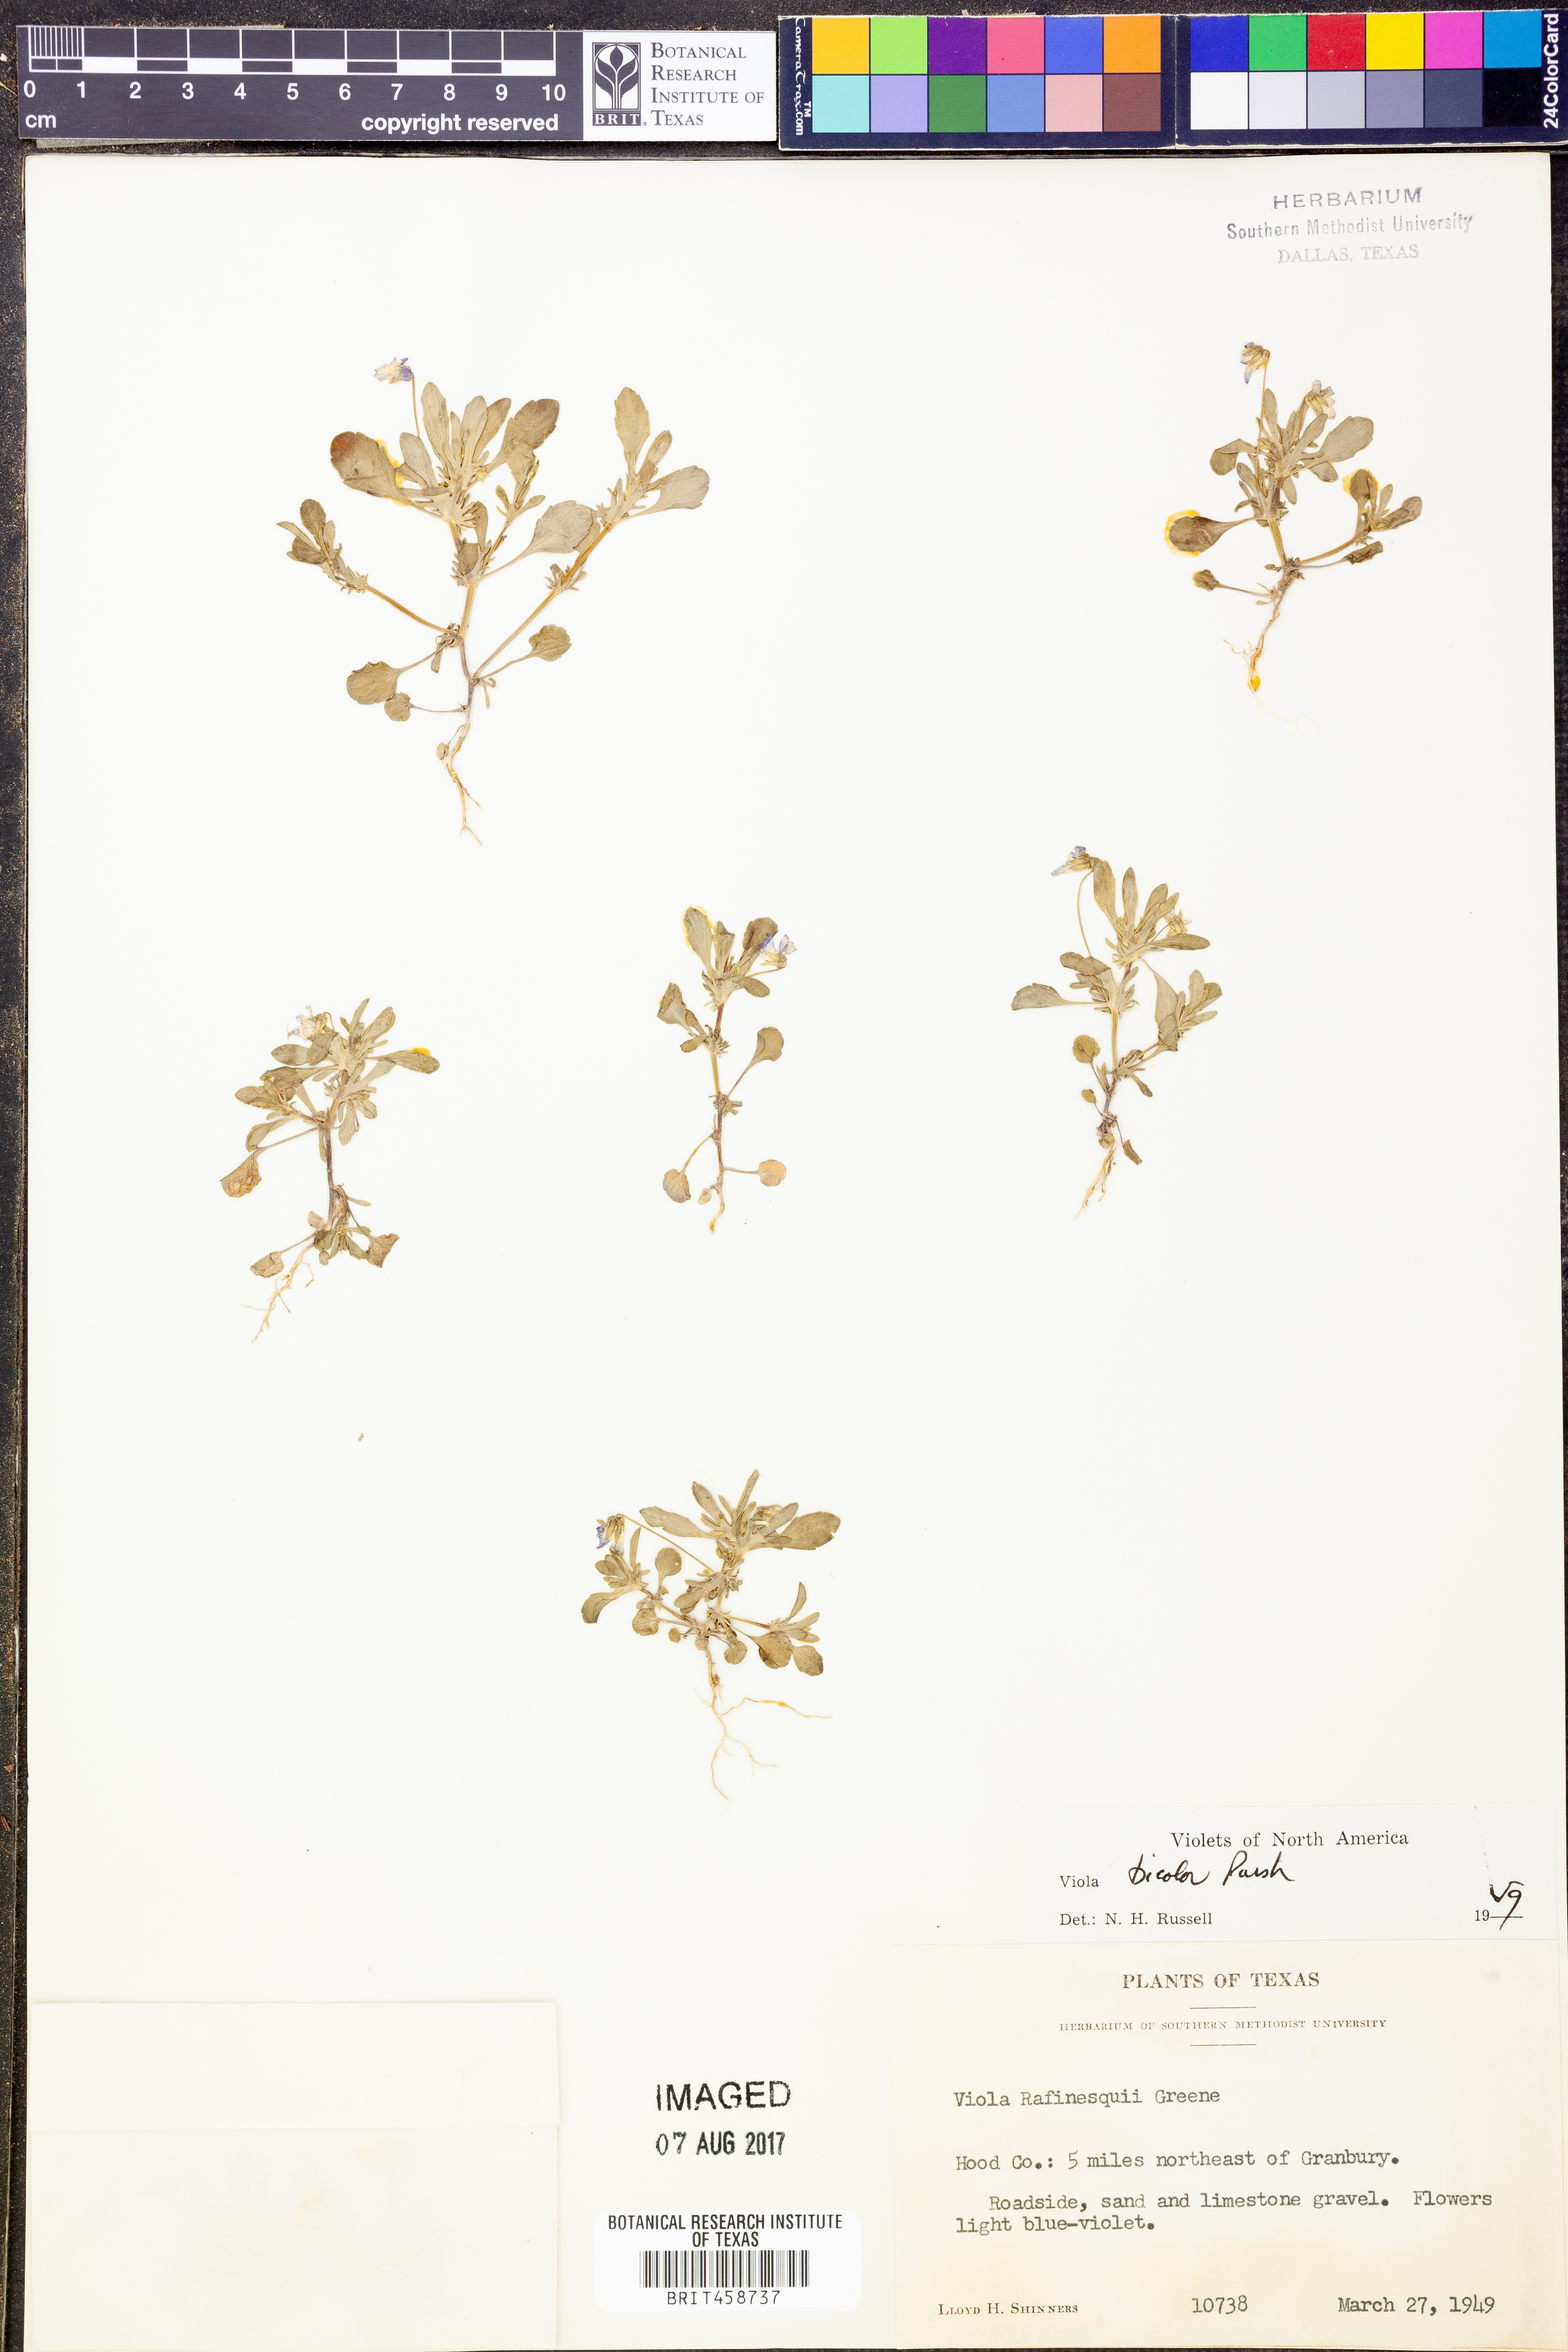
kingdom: Plantae
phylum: Tracheophyta
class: Magnoliopsida
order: Malpighiales
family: Violaceae
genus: Viola
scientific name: Viola rafinesquei
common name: American field pansy
